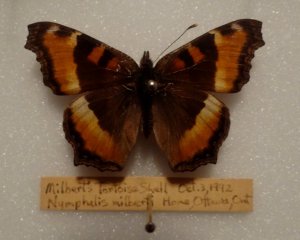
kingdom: Animalia
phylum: Arthropoda
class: Insecta
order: Lepidoptera
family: Nymphalidae
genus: Aglais
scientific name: Aglais milberti
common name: Milbert's Tortoiseshell
